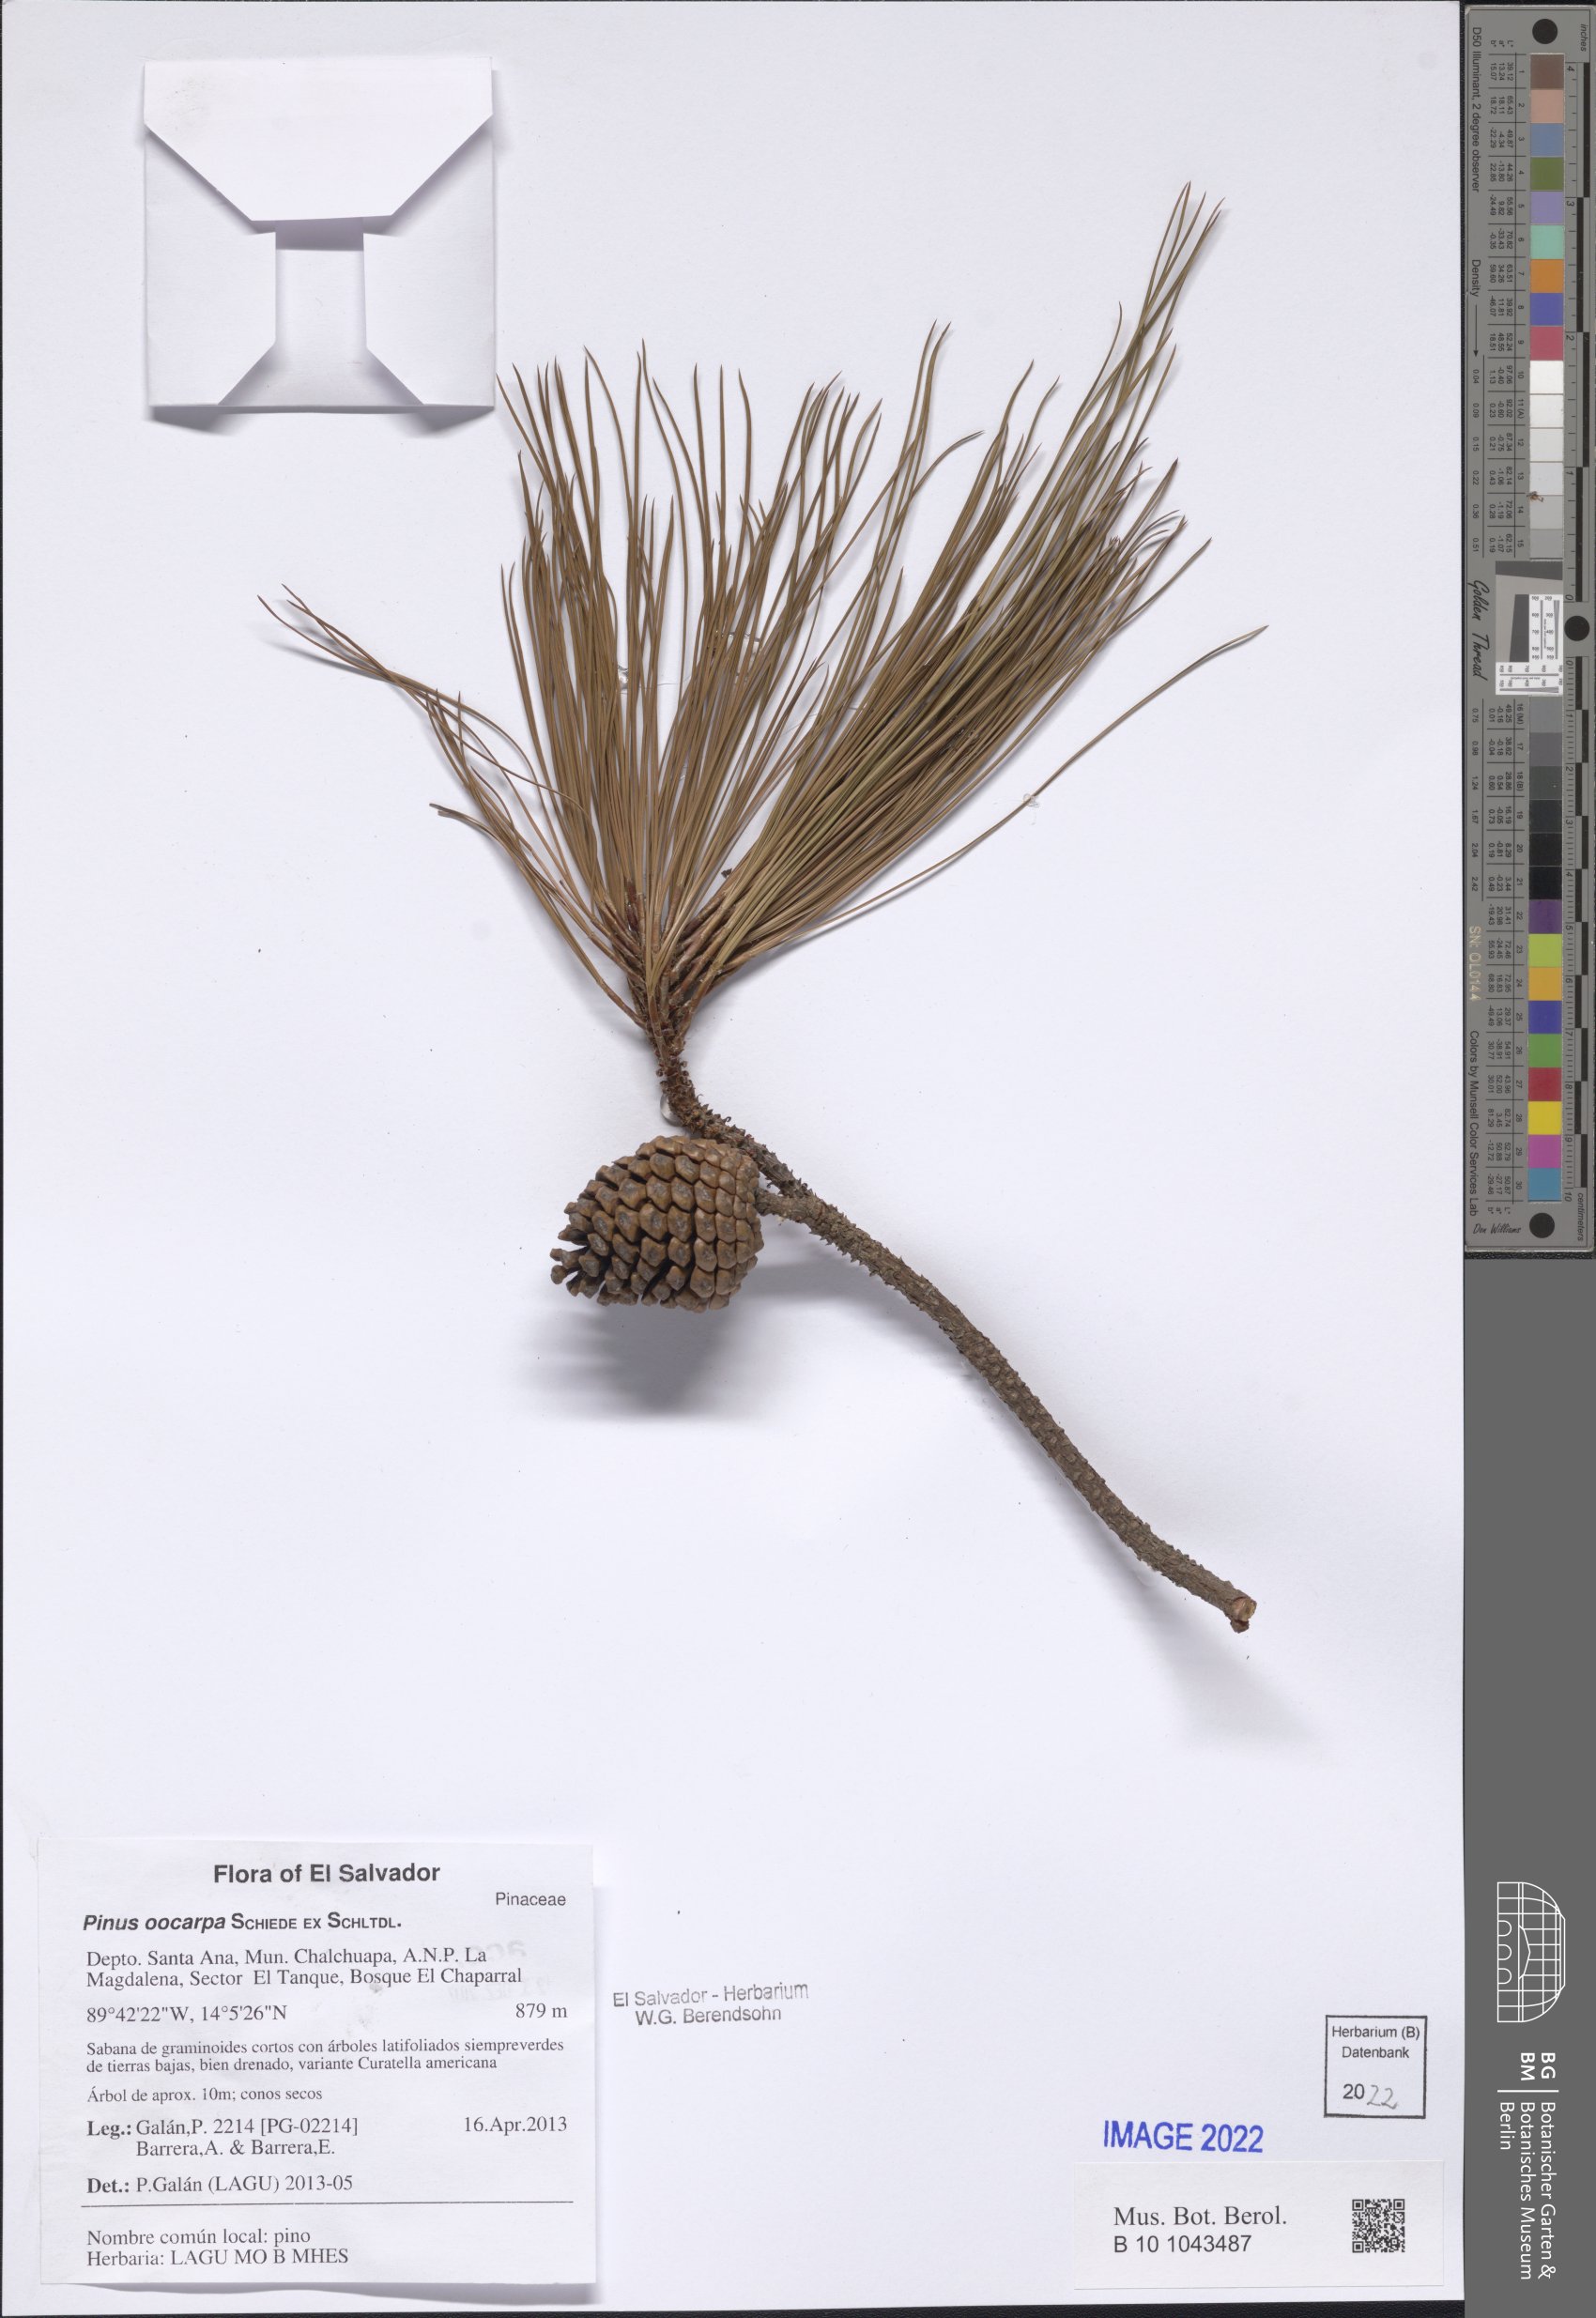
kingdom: Plantae
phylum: Tracheophyta
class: Pinopsida
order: Pinales
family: Pinaceae
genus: Pinus
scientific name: Pinus oocarpa
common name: Egg-cone pine
